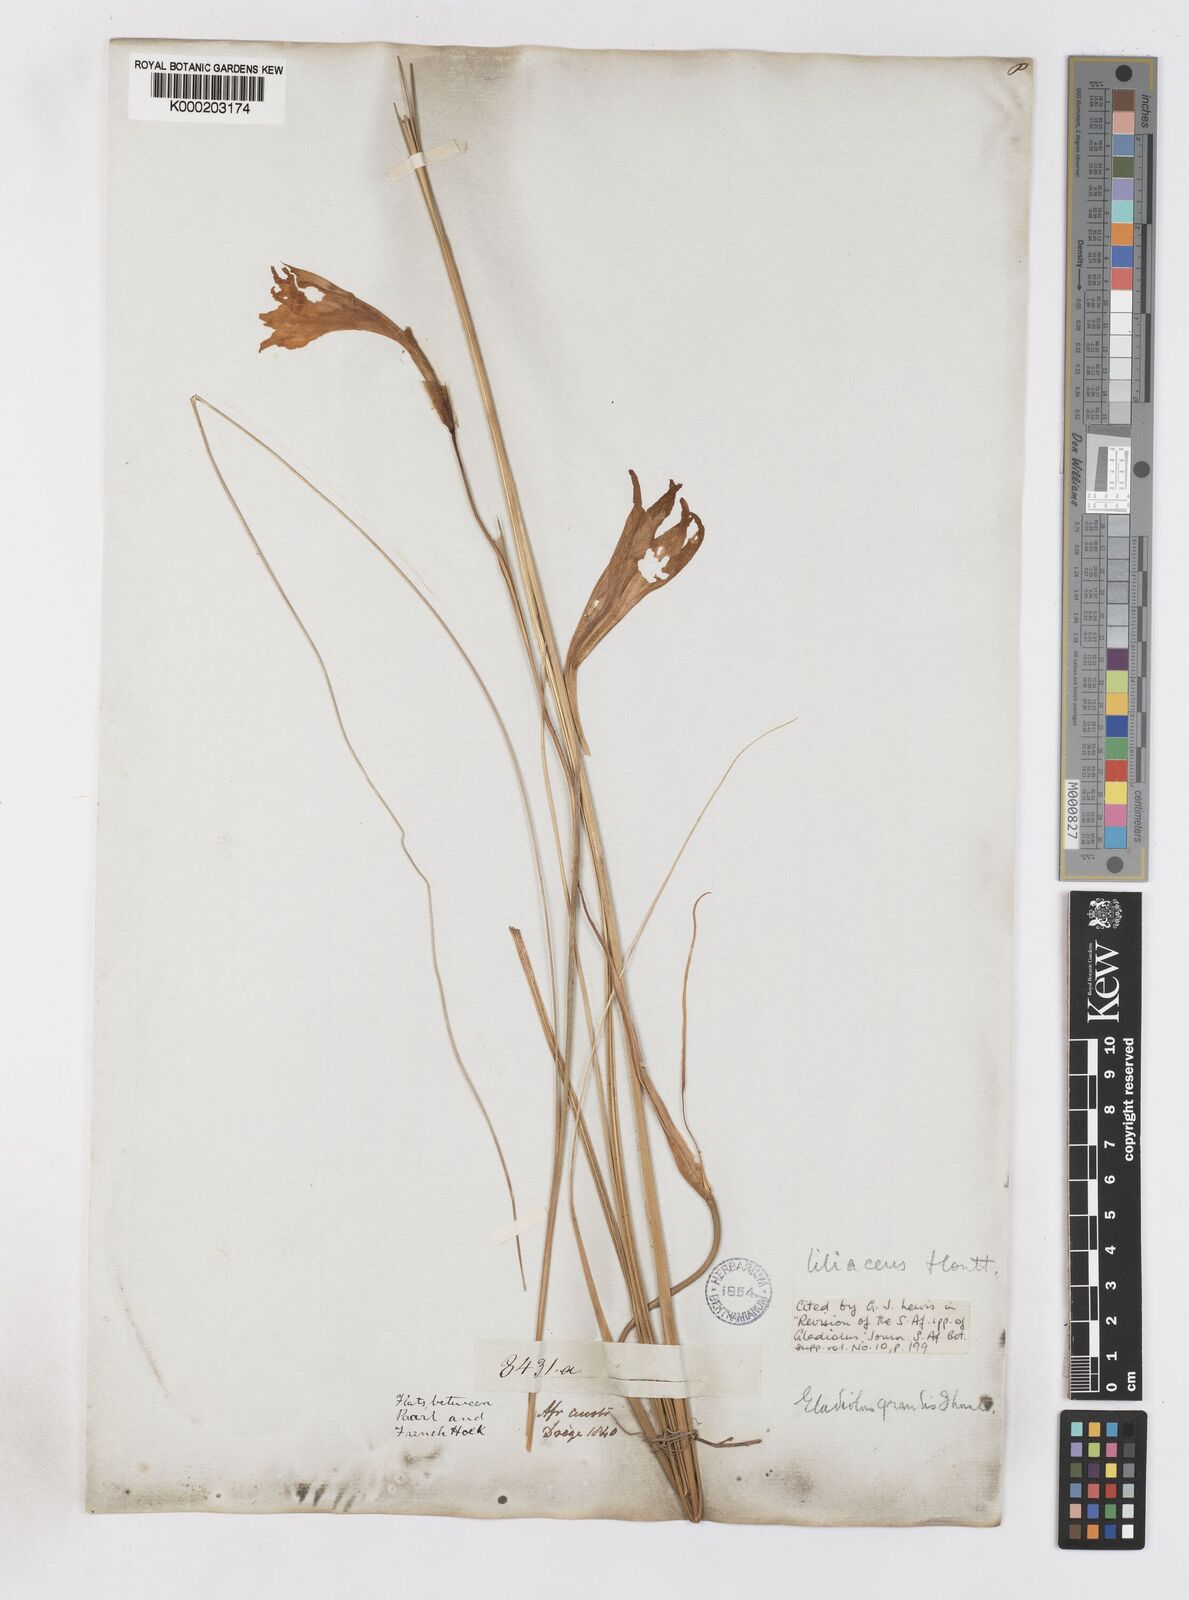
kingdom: Plantae
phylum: Tracheophyta
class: Liliopsida
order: Asparagales
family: Iridaceae
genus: Gladiolus
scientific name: Gladiolus liliaceus
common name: Large brown afrikaner
